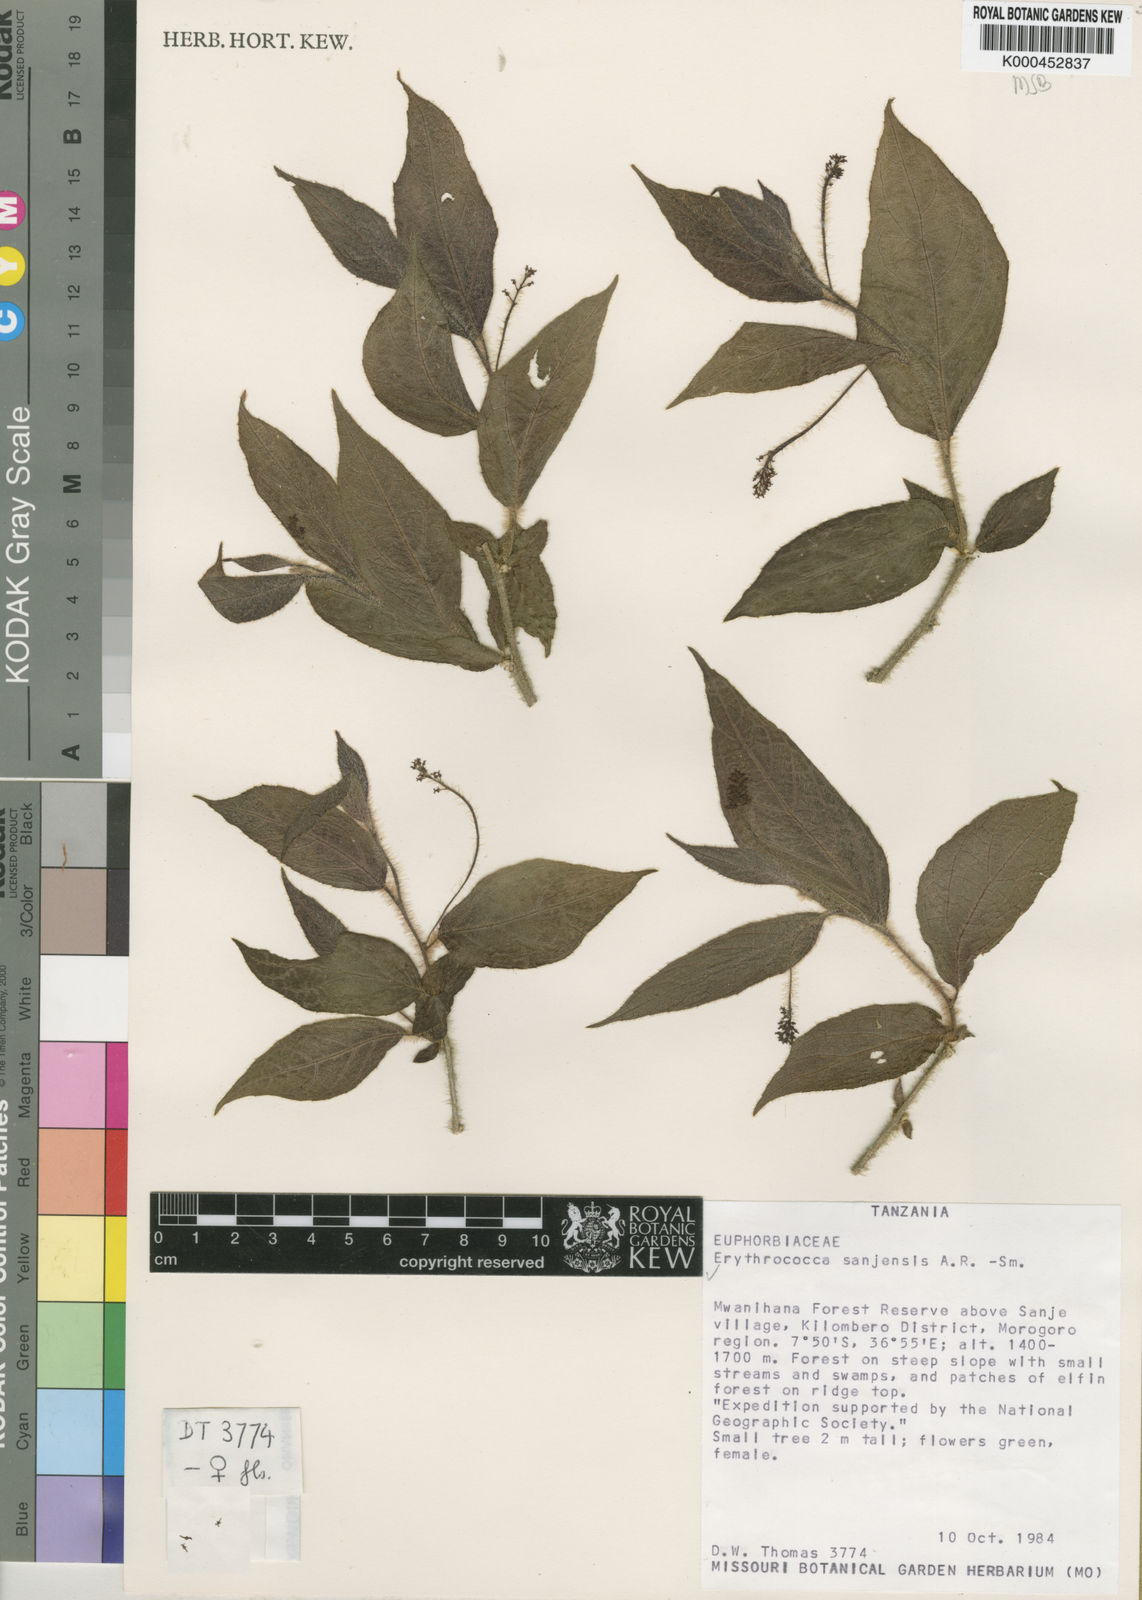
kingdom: Plantae
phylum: Tracheophyta
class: Magnoliopsida
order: Malpighiales
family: Euphorbiaceae
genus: Erythrococca
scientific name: Erythrococca
